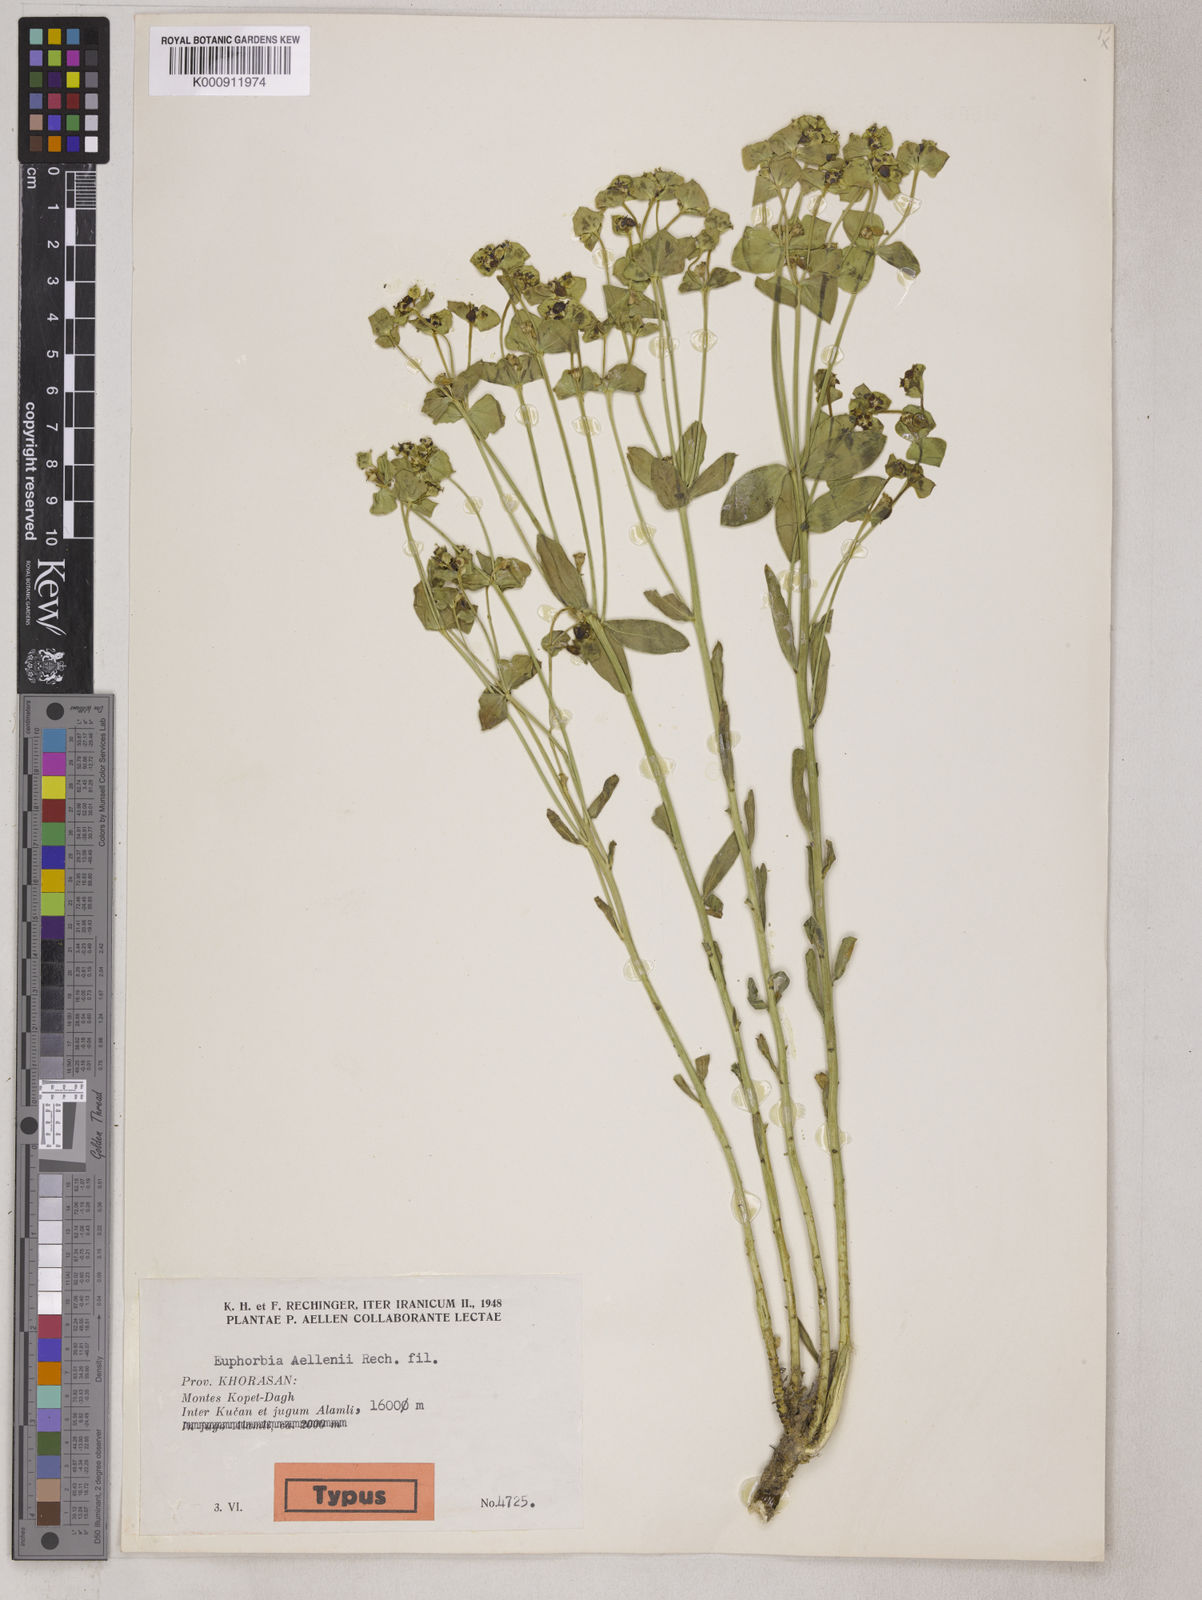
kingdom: Plantae
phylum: Tracheophyta
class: Magnoliopsida
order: Malpighiales
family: Euphorbiaceae
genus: Euphorbia
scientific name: Euphorbia kopetdaghi
